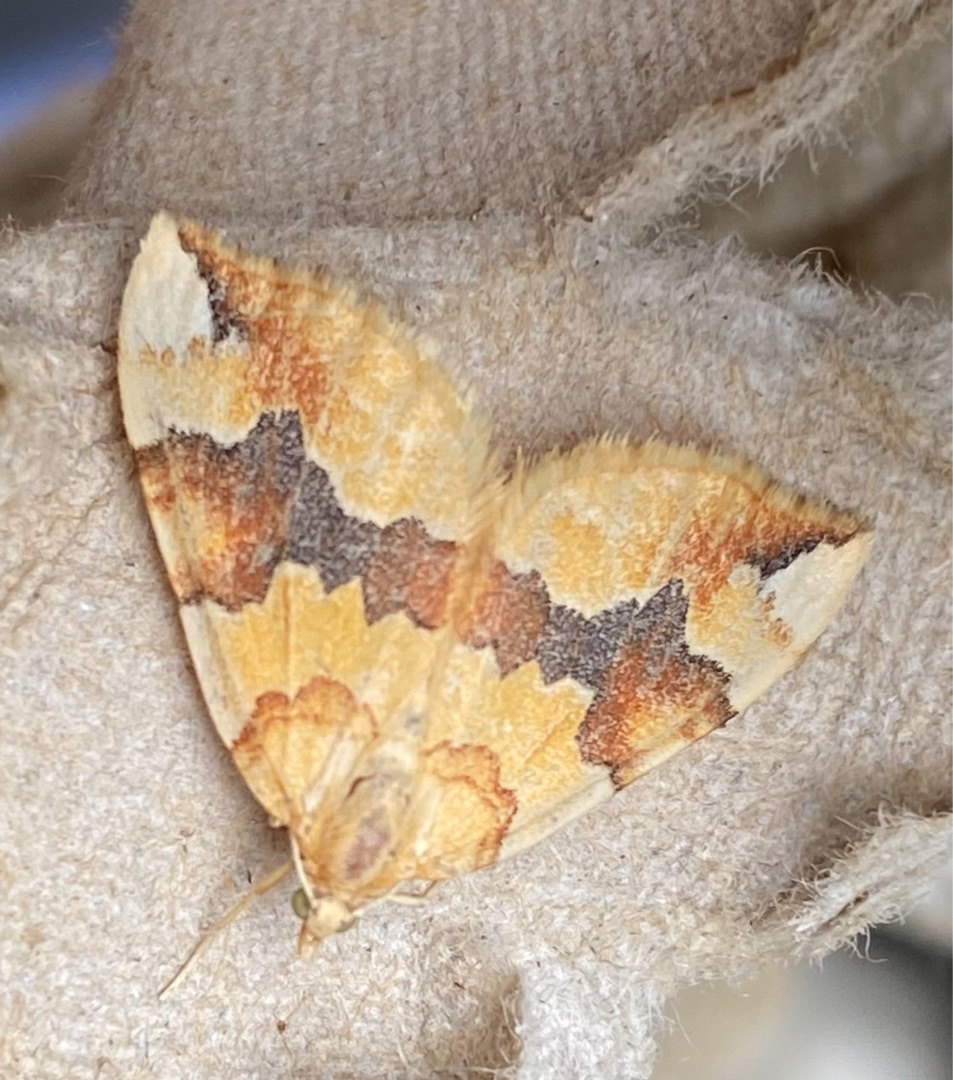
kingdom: Animalia
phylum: Arthropoda
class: Insecta
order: Lepidoptera
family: Geometridae
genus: Cidaria
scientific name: Cidaria fulvata
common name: Gul bladmåler
